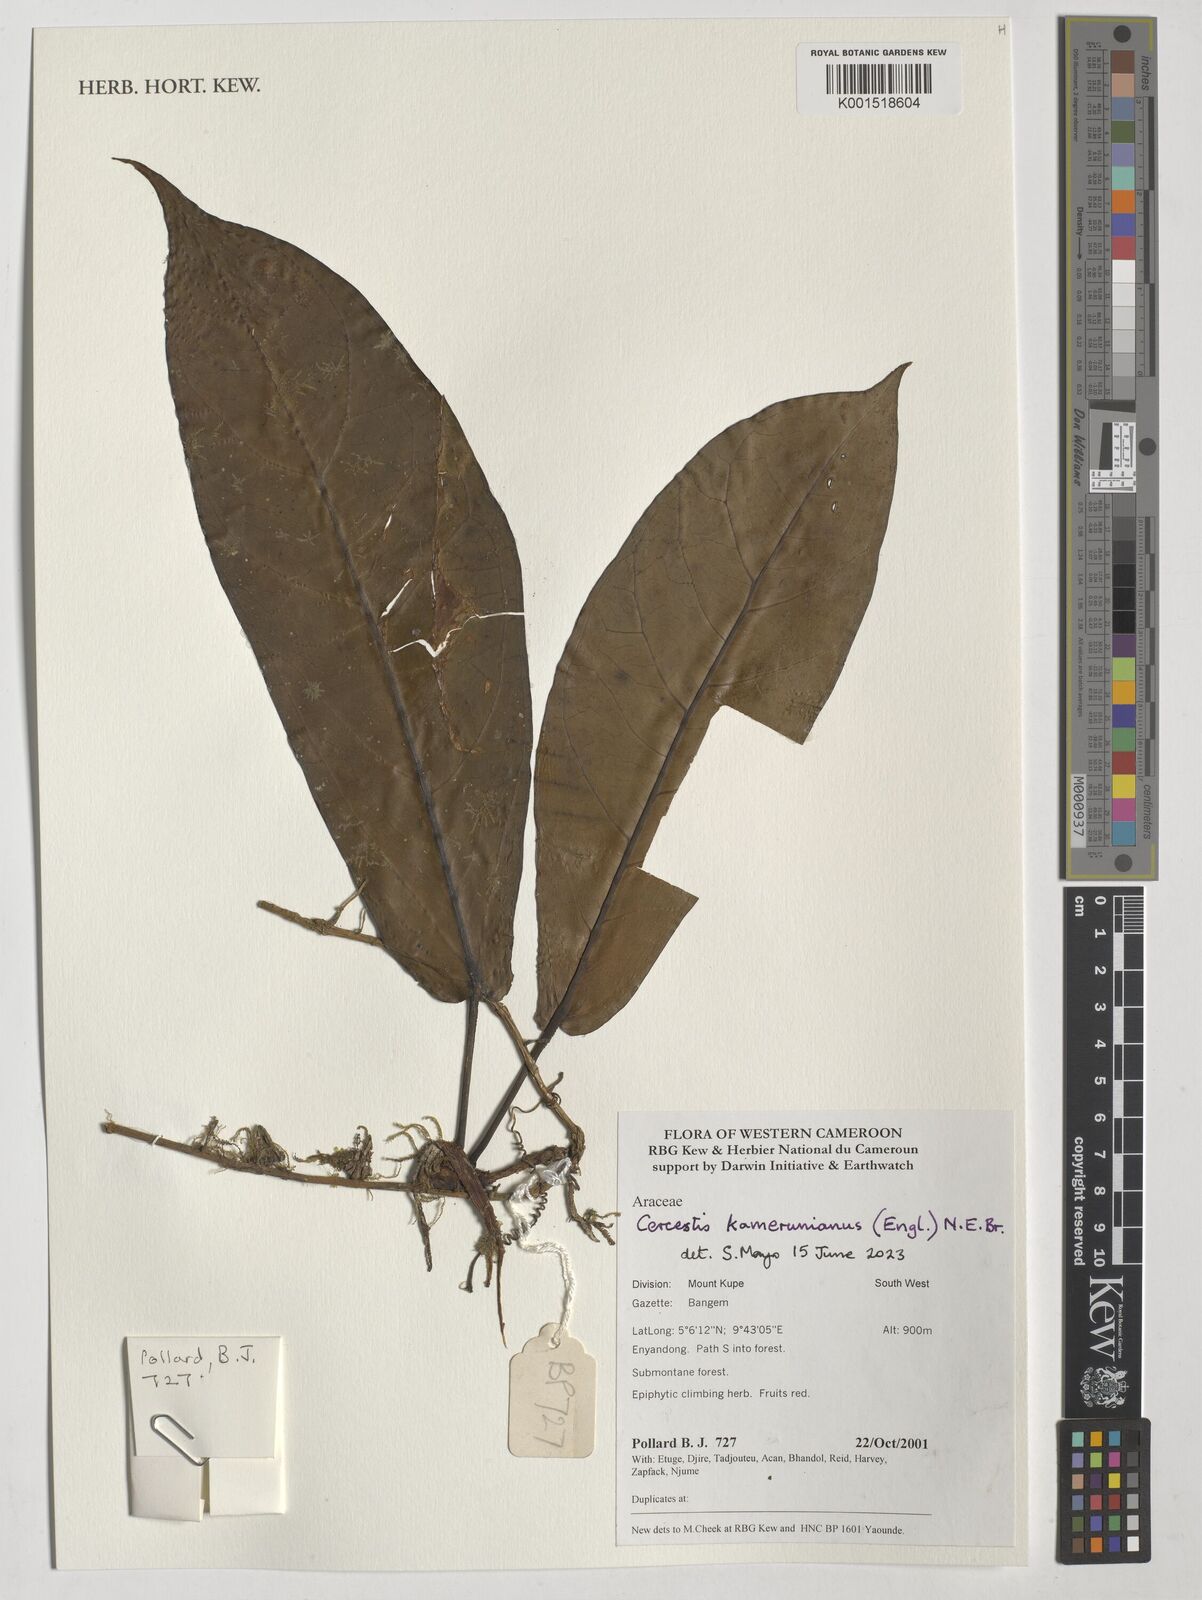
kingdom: Plantae
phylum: Tracheophyta
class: Liliopsida
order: Alismatales
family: Araceae
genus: Cercestis
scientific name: Cercestis kamerunianus
